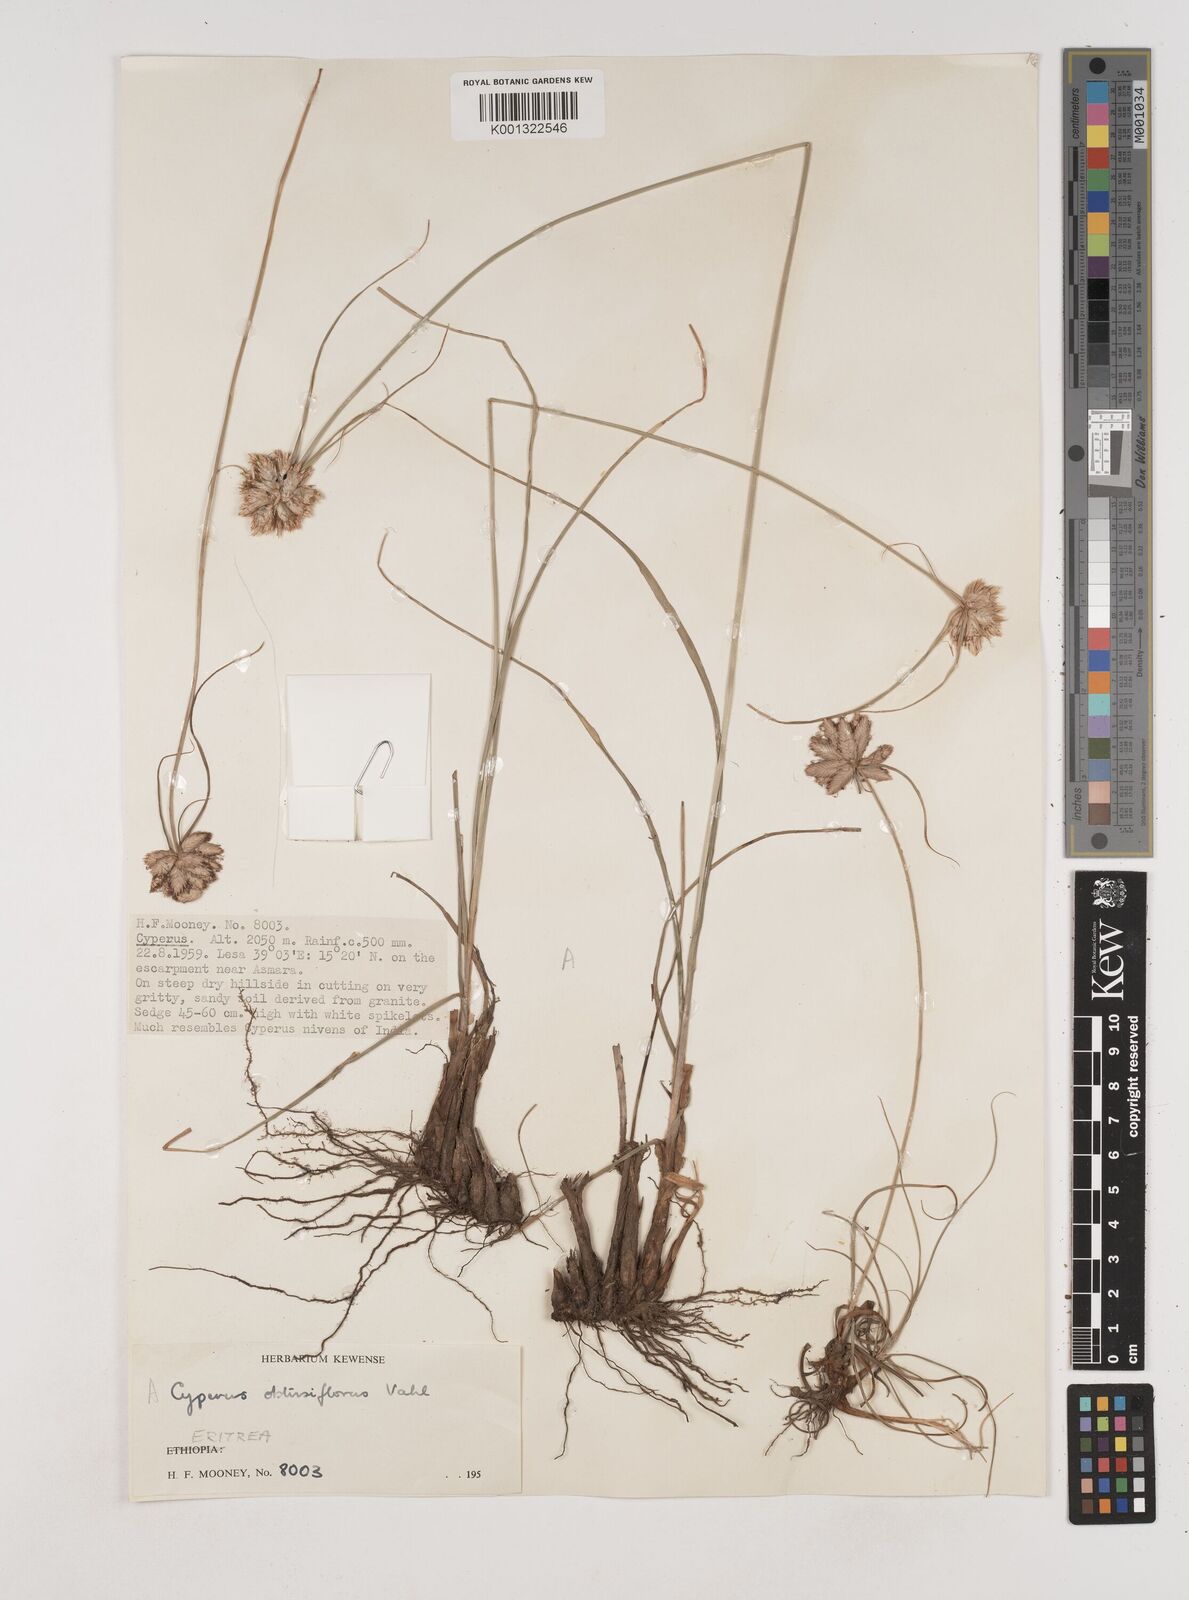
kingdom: Plantae
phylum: Tracheophyta
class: Liliopsida
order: Poales
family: Cyperaceae
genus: Cyperus
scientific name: Cyperus niveus
